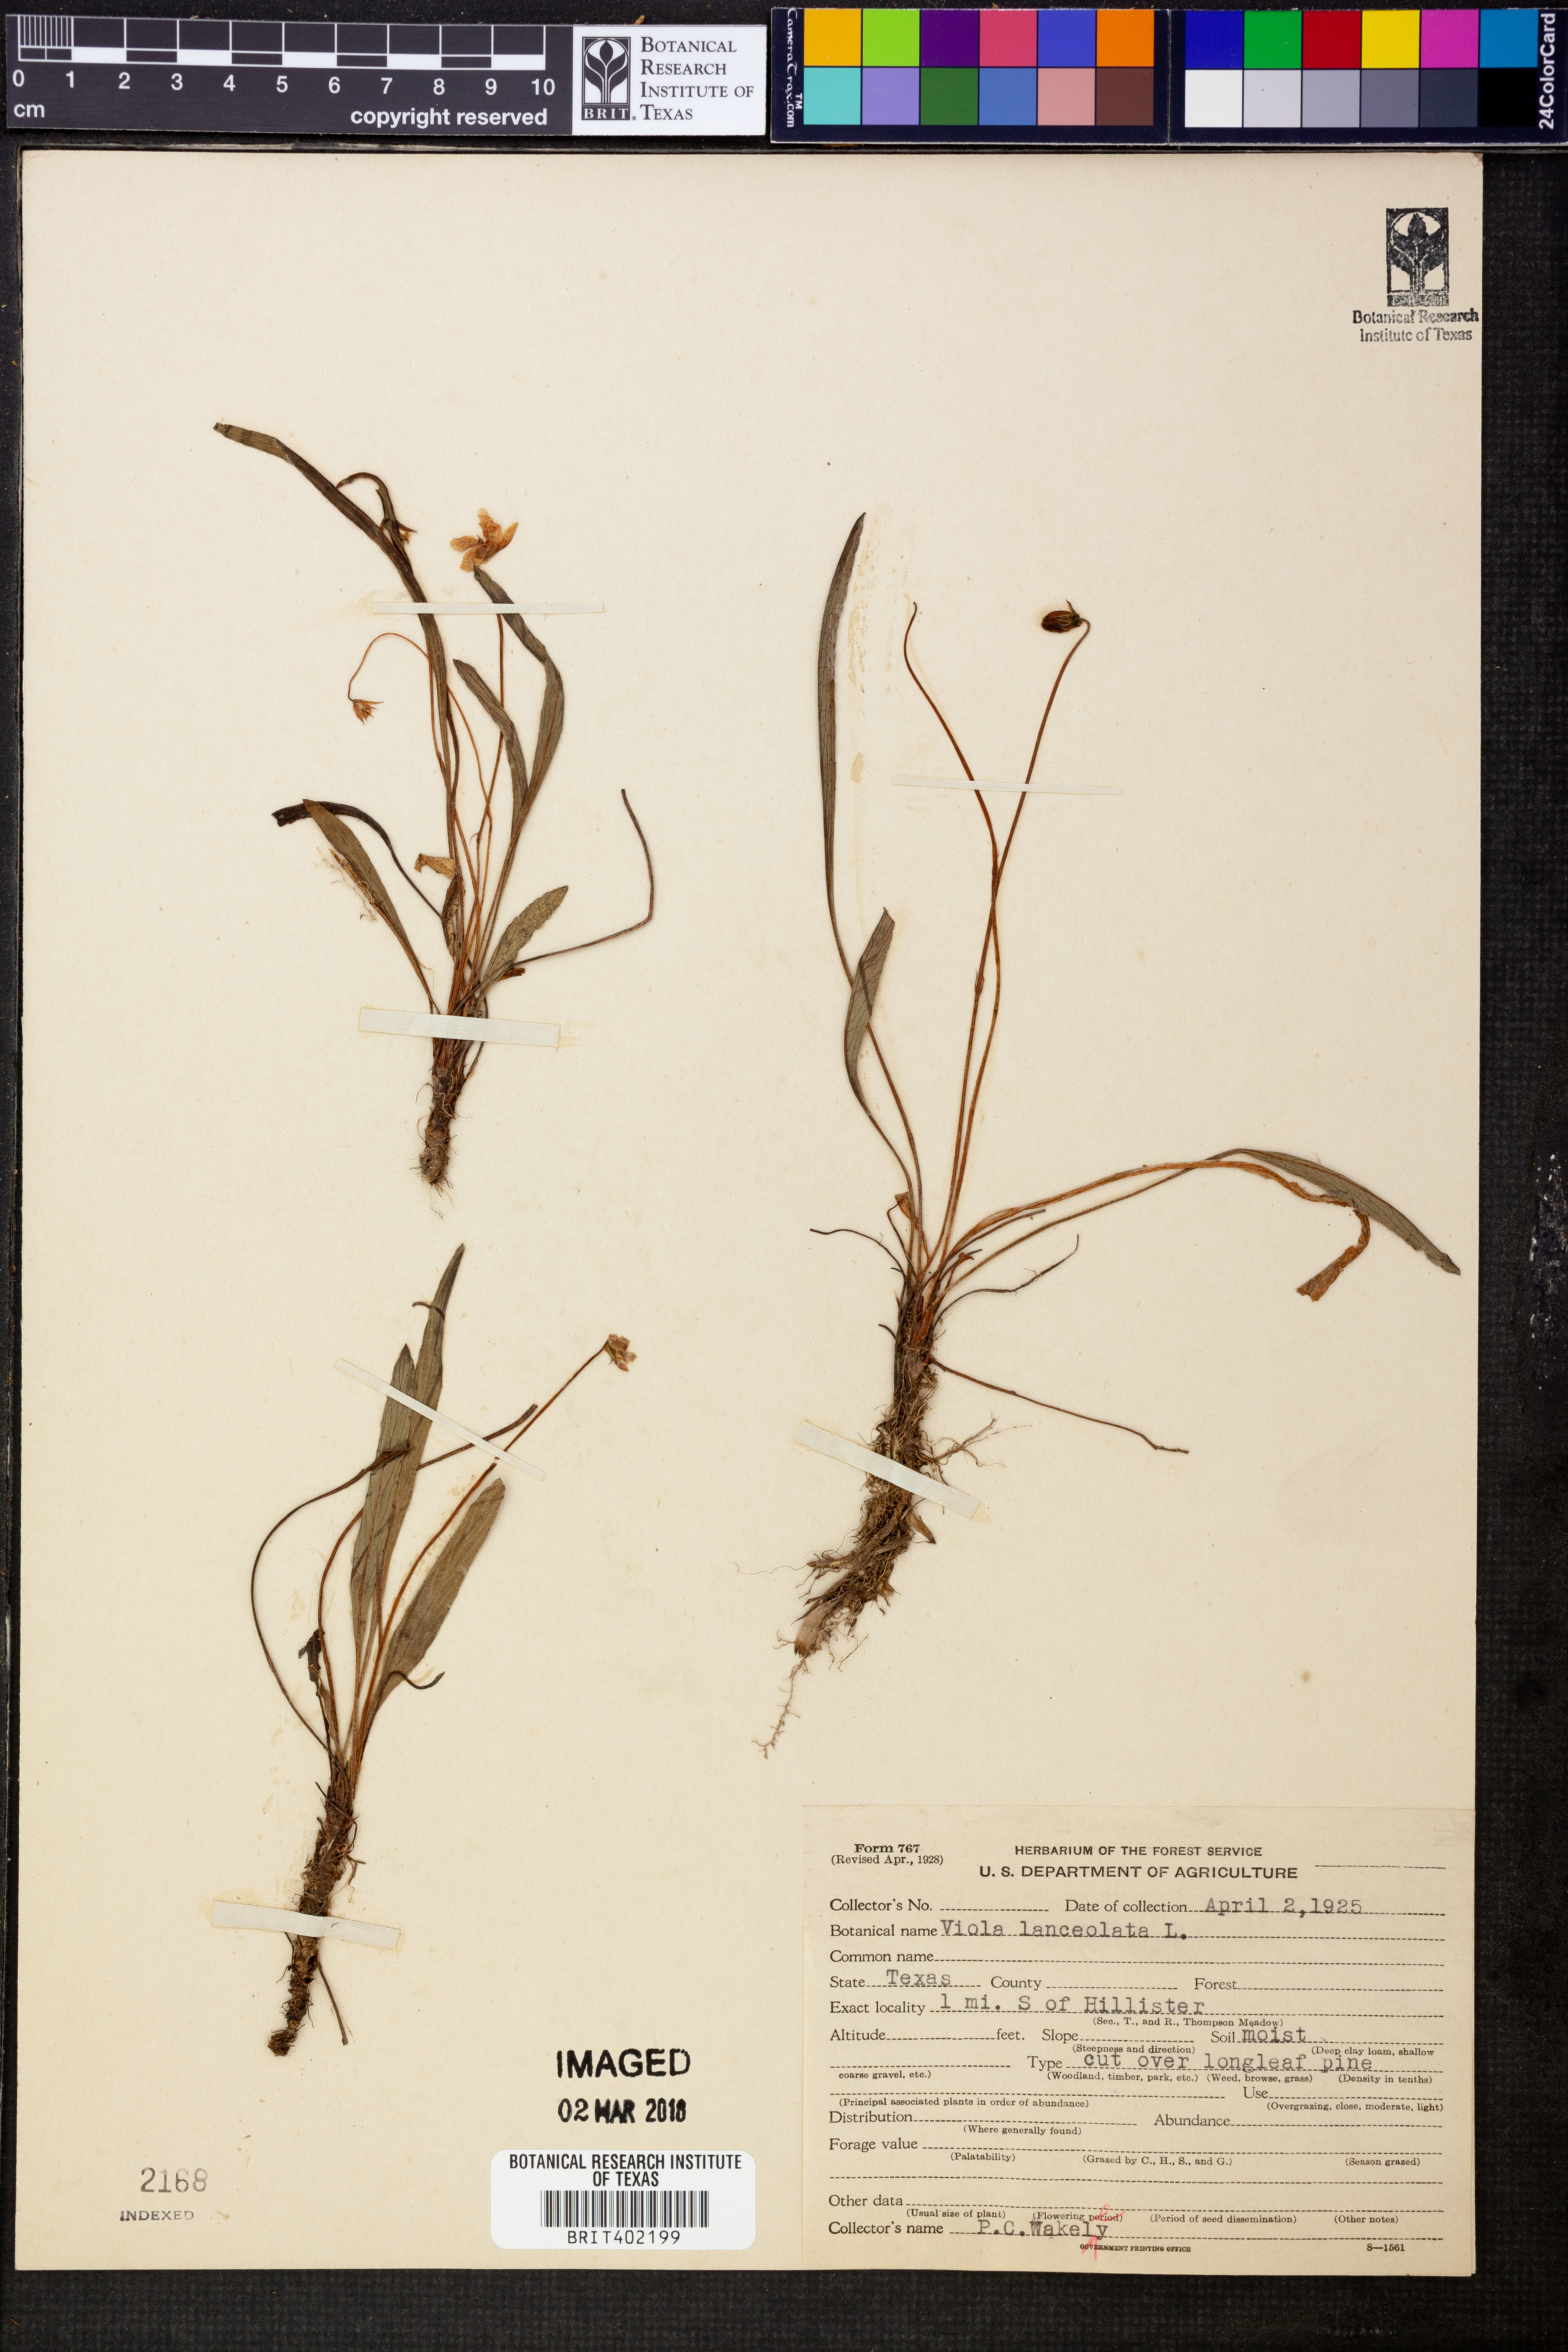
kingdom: Plantae
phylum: Tracheophyta
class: Magnoliopsida
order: Malpighiales
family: Violaceae
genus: Viola
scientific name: Viola lanceolata
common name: Bog white violet
